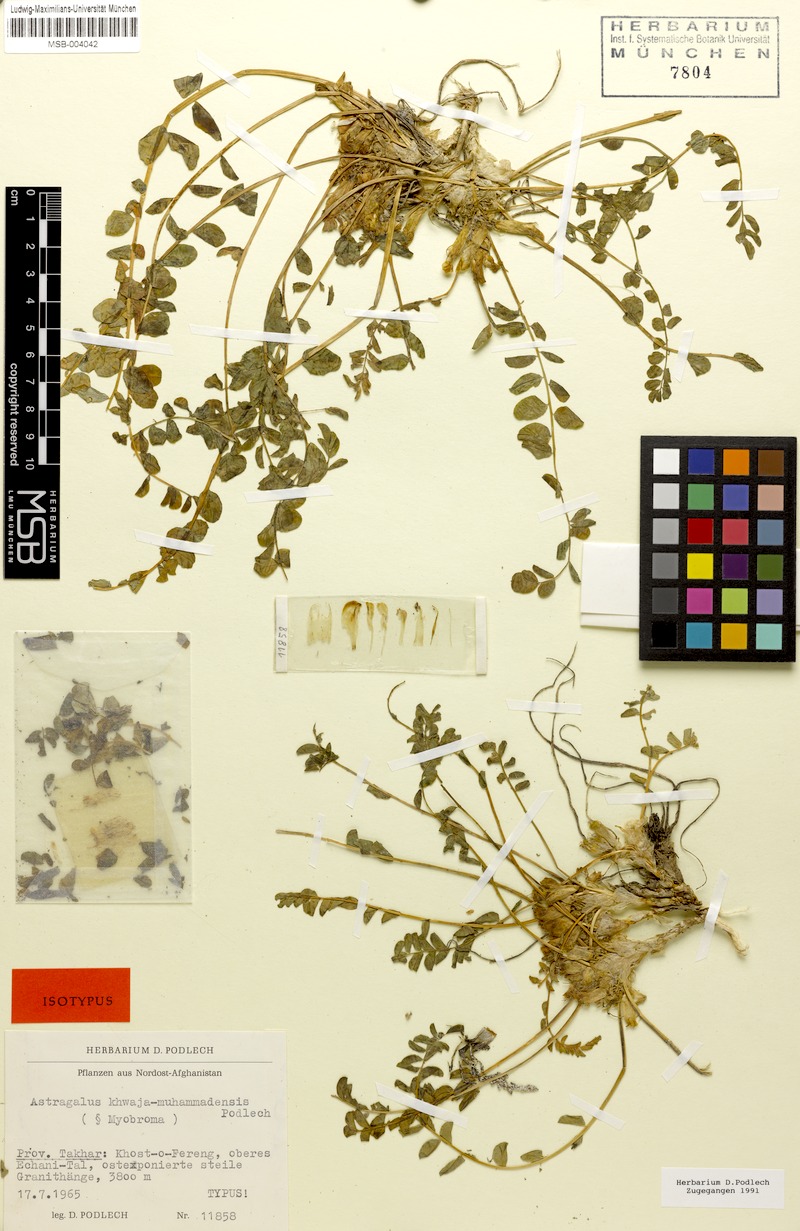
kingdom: Plantae
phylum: Tracheophyta
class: Magnoliopsida
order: Fabales
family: Fabaceae
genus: Astragalus
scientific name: Astragalus khwaja-muhammadensis
